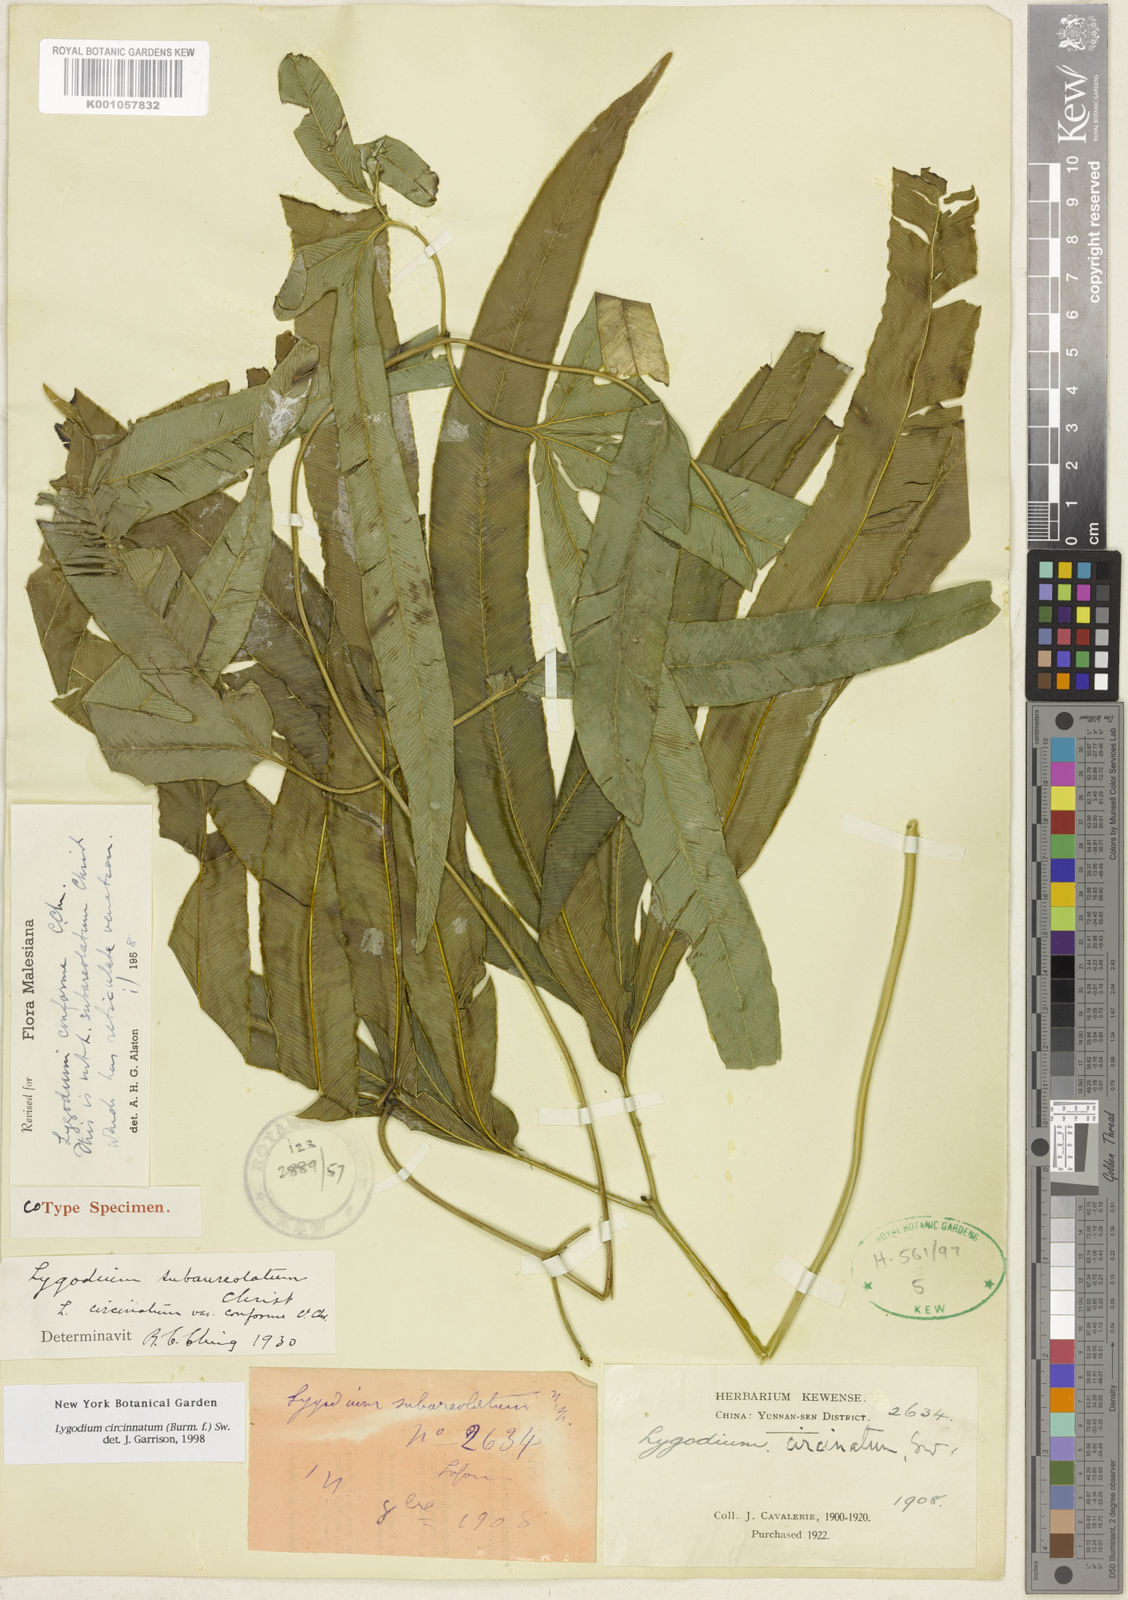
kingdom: Plantae
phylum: Tracheophyta
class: Polypodiopsida
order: Schizaeales
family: Lygodiaceae
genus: Lygodium
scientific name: Lygodium circinnatum
